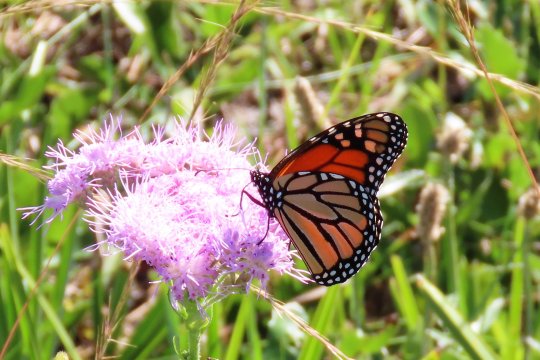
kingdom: Animalia
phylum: Arthropoda
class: Insecta
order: Lepidoptera
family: Nymphalidae
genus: Danaus
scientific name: Danaus plexippus
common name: Monarch
